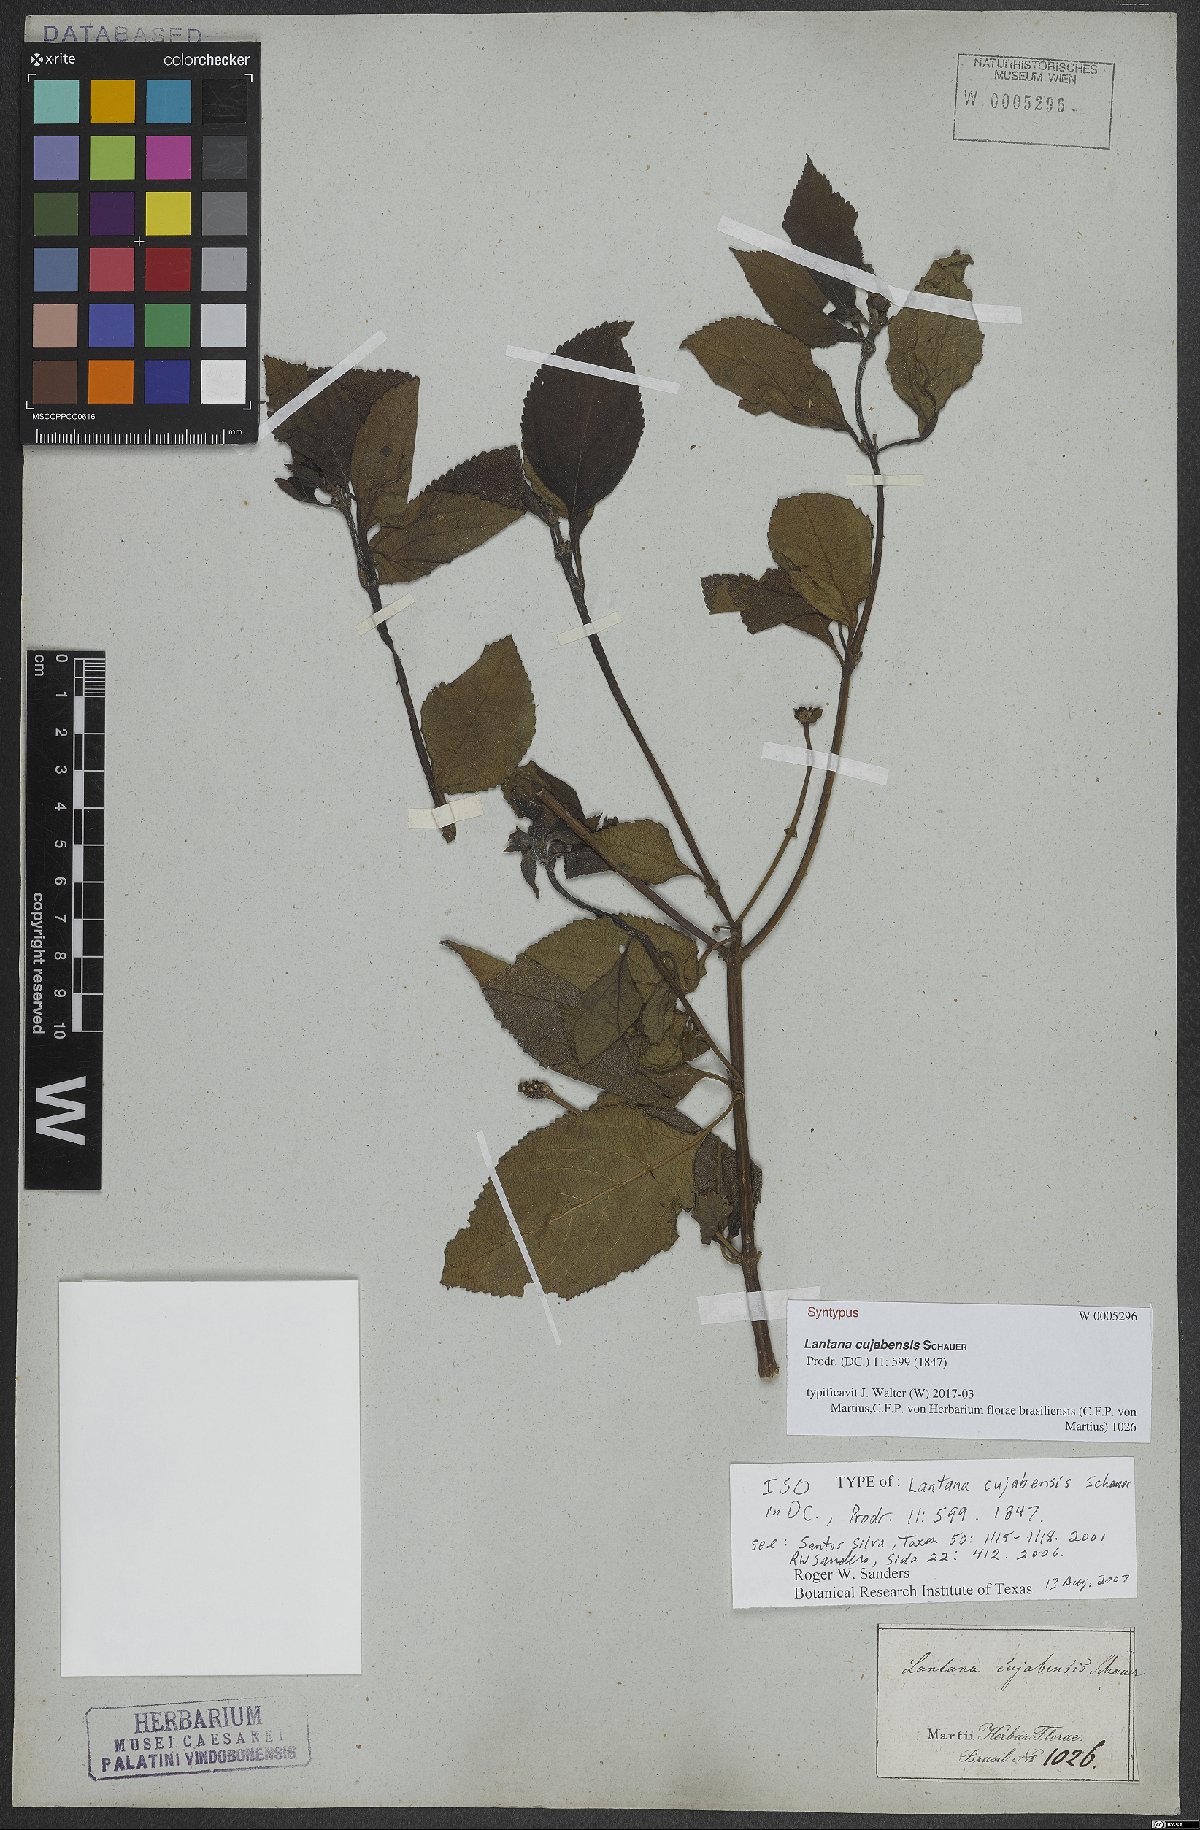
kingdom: Plantae
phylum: Tracheophyta
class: Magnoliopsida
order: Lamiales
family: Verbenaceae
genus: Lantana
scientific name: Lantana cujabensis
